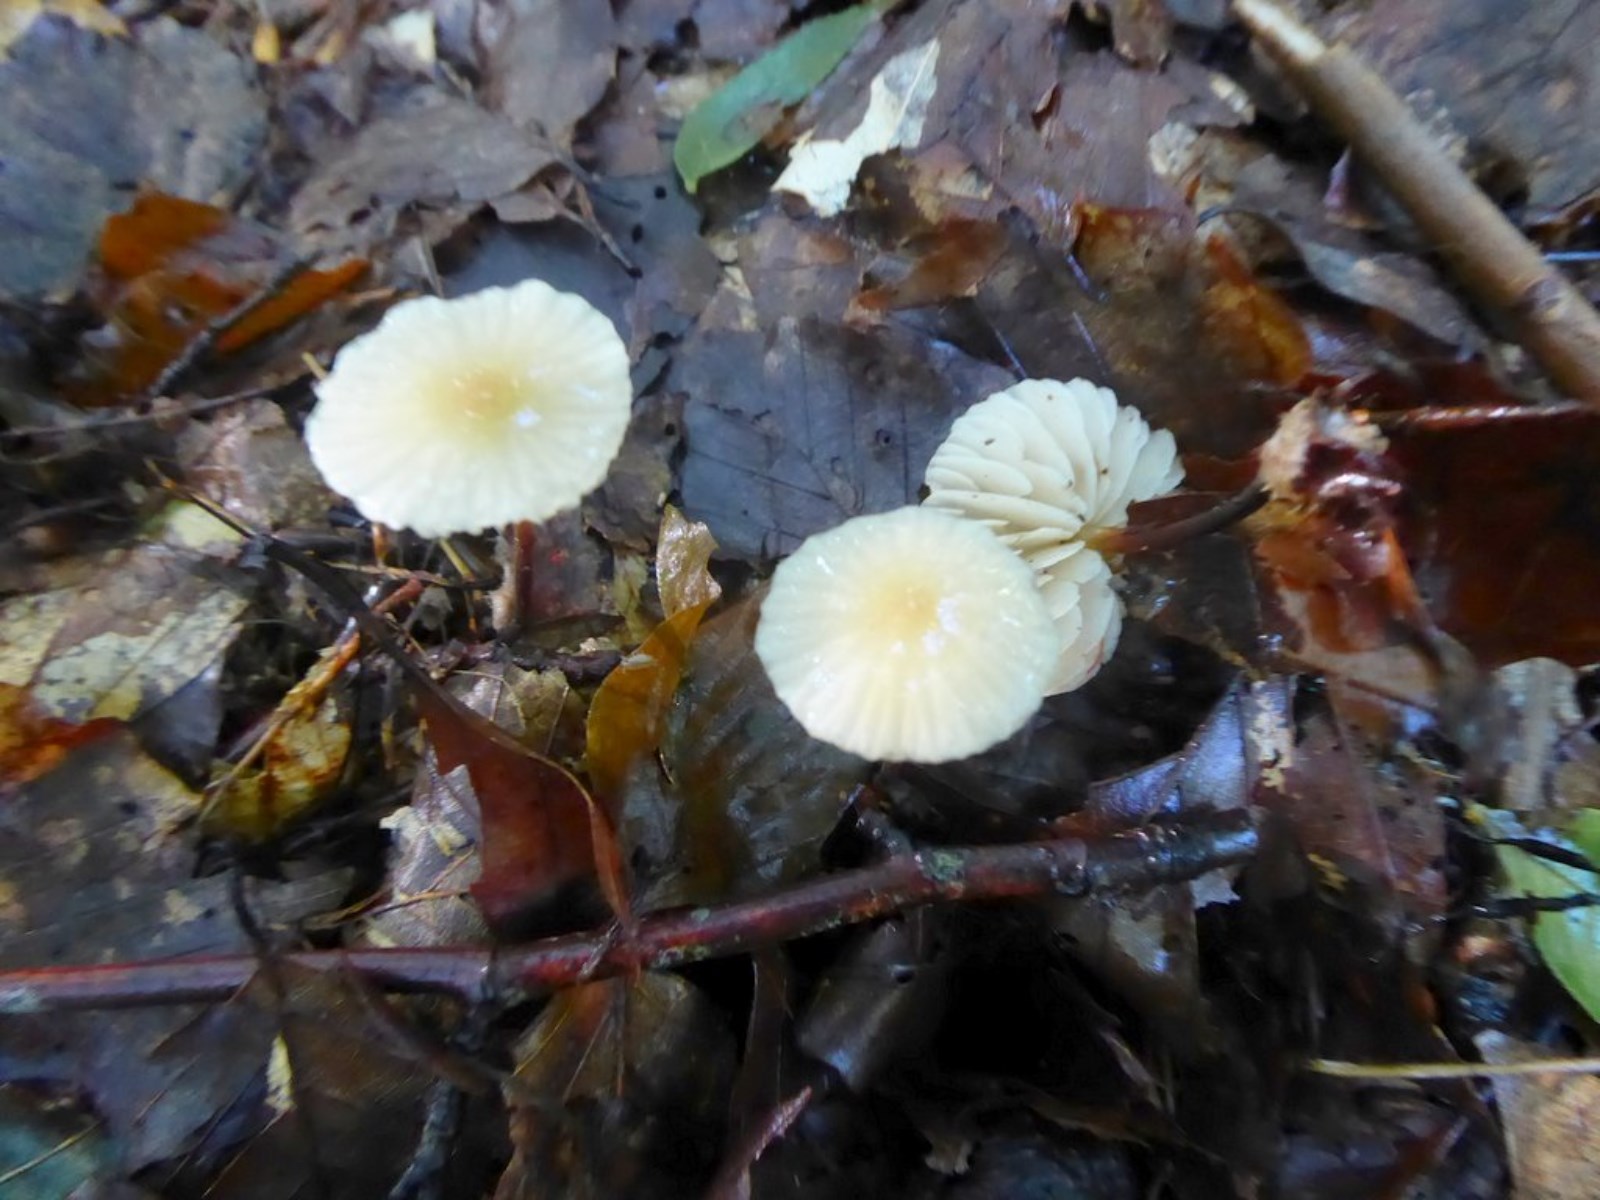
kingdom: Fungi
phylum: Basidiomycota
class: Agaricomycetes
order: Agaricales
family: Marasmiaceae
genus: Marasmius
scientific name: Marasmius torquescens
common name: filtfodet bruskhat
